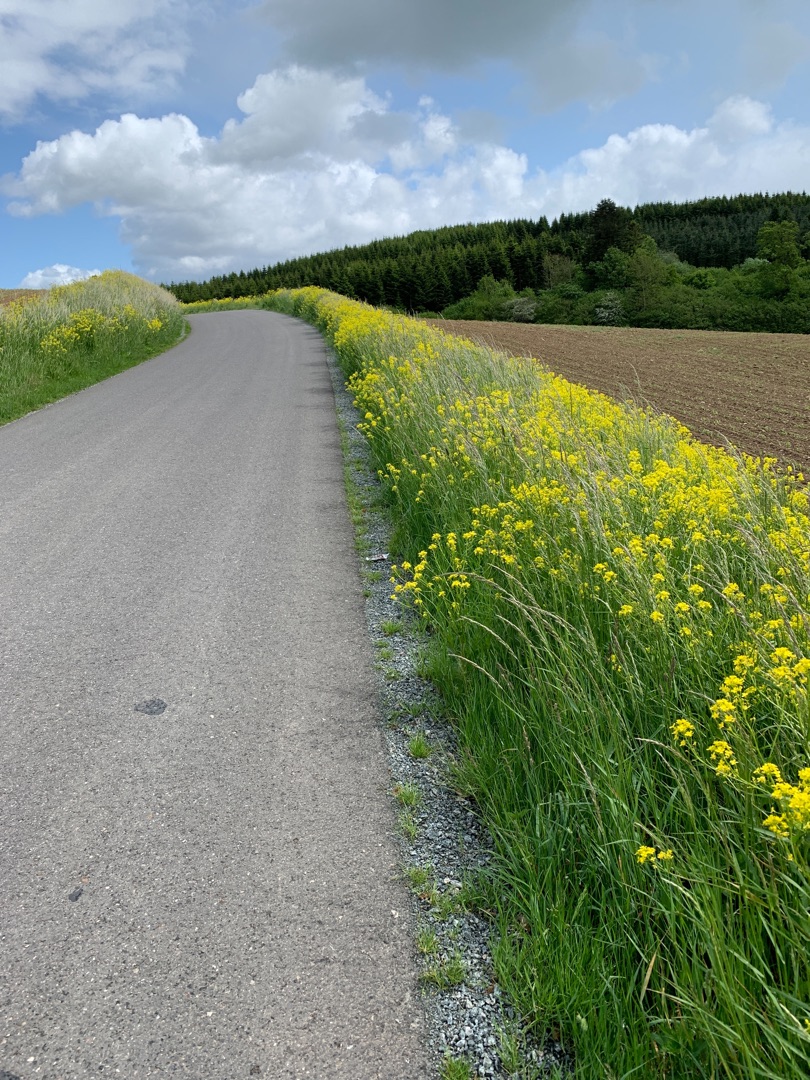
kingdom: Plantae
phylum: Tracheophyta
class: Magnoliopsida
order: Brassicales
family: Brassicaceae
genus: Bunias
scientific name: Bunias orientalis
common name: Takkeklap
